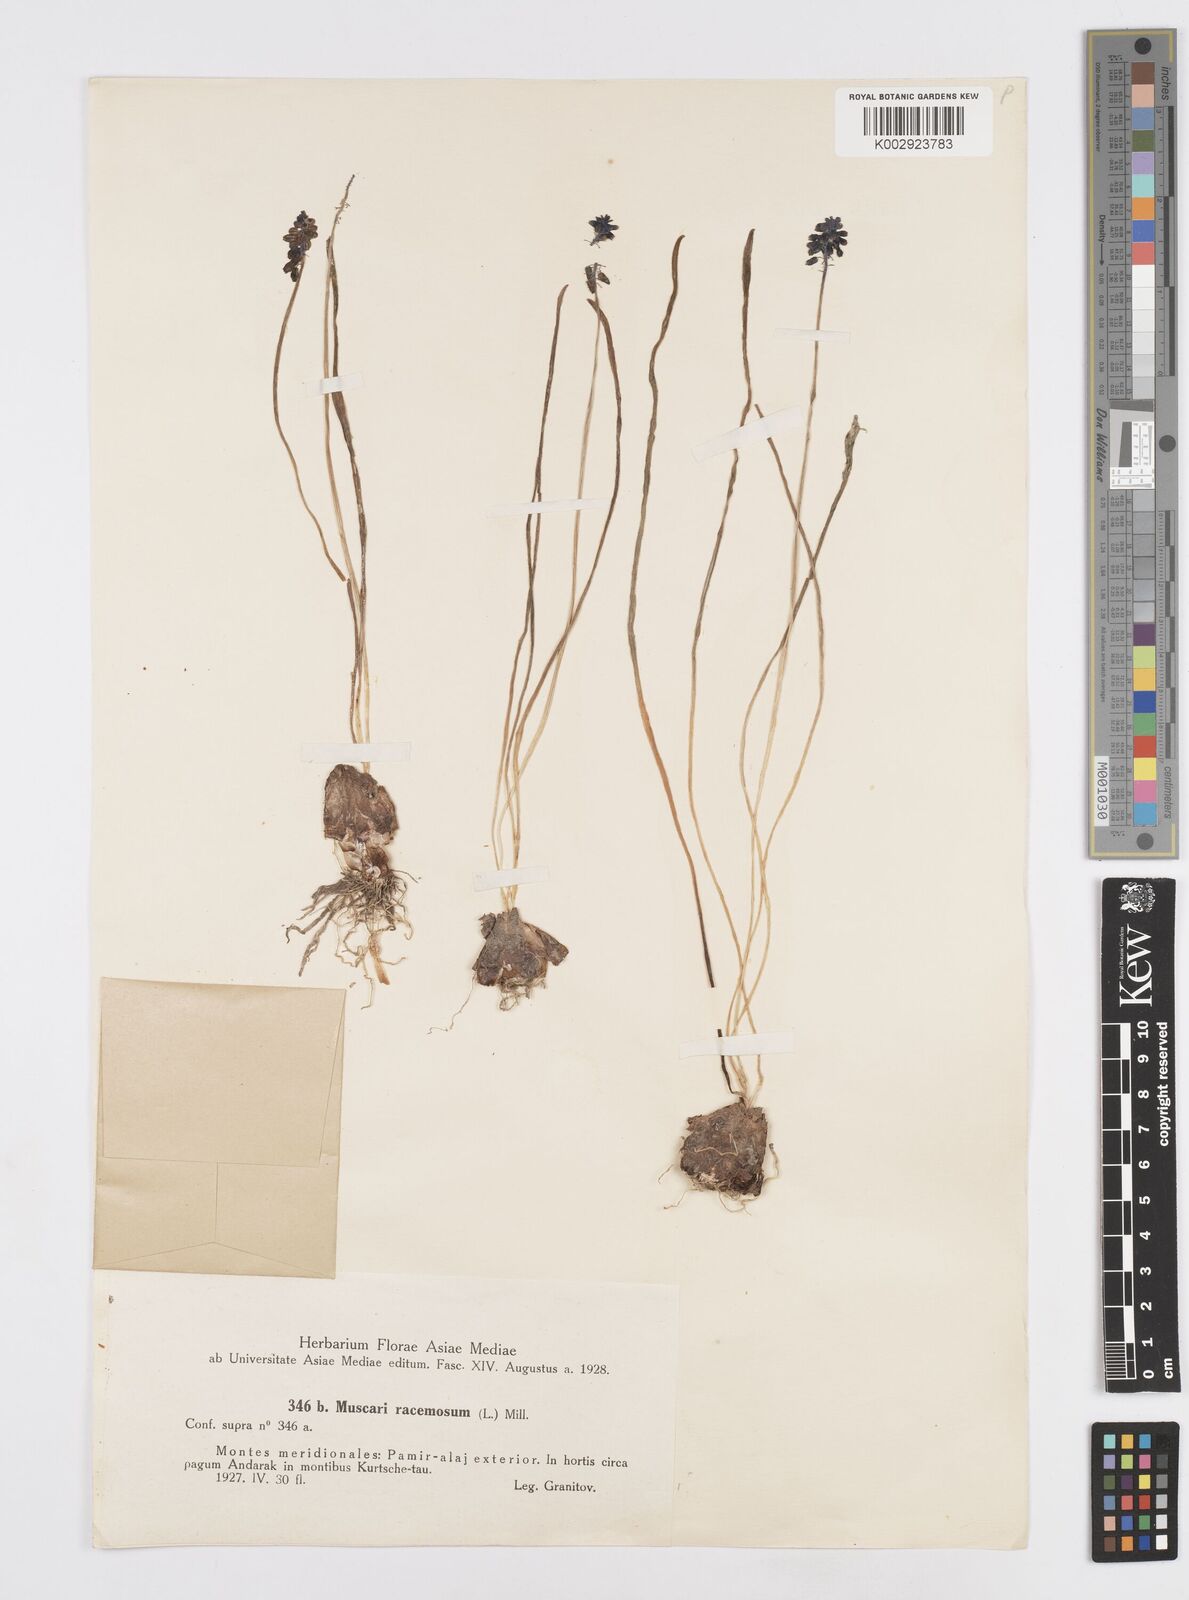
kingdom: Plantae
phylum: Tracheophyta
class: Liliopsida
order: Asparagales
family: Asparagaceae
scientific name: Asparagaceae
